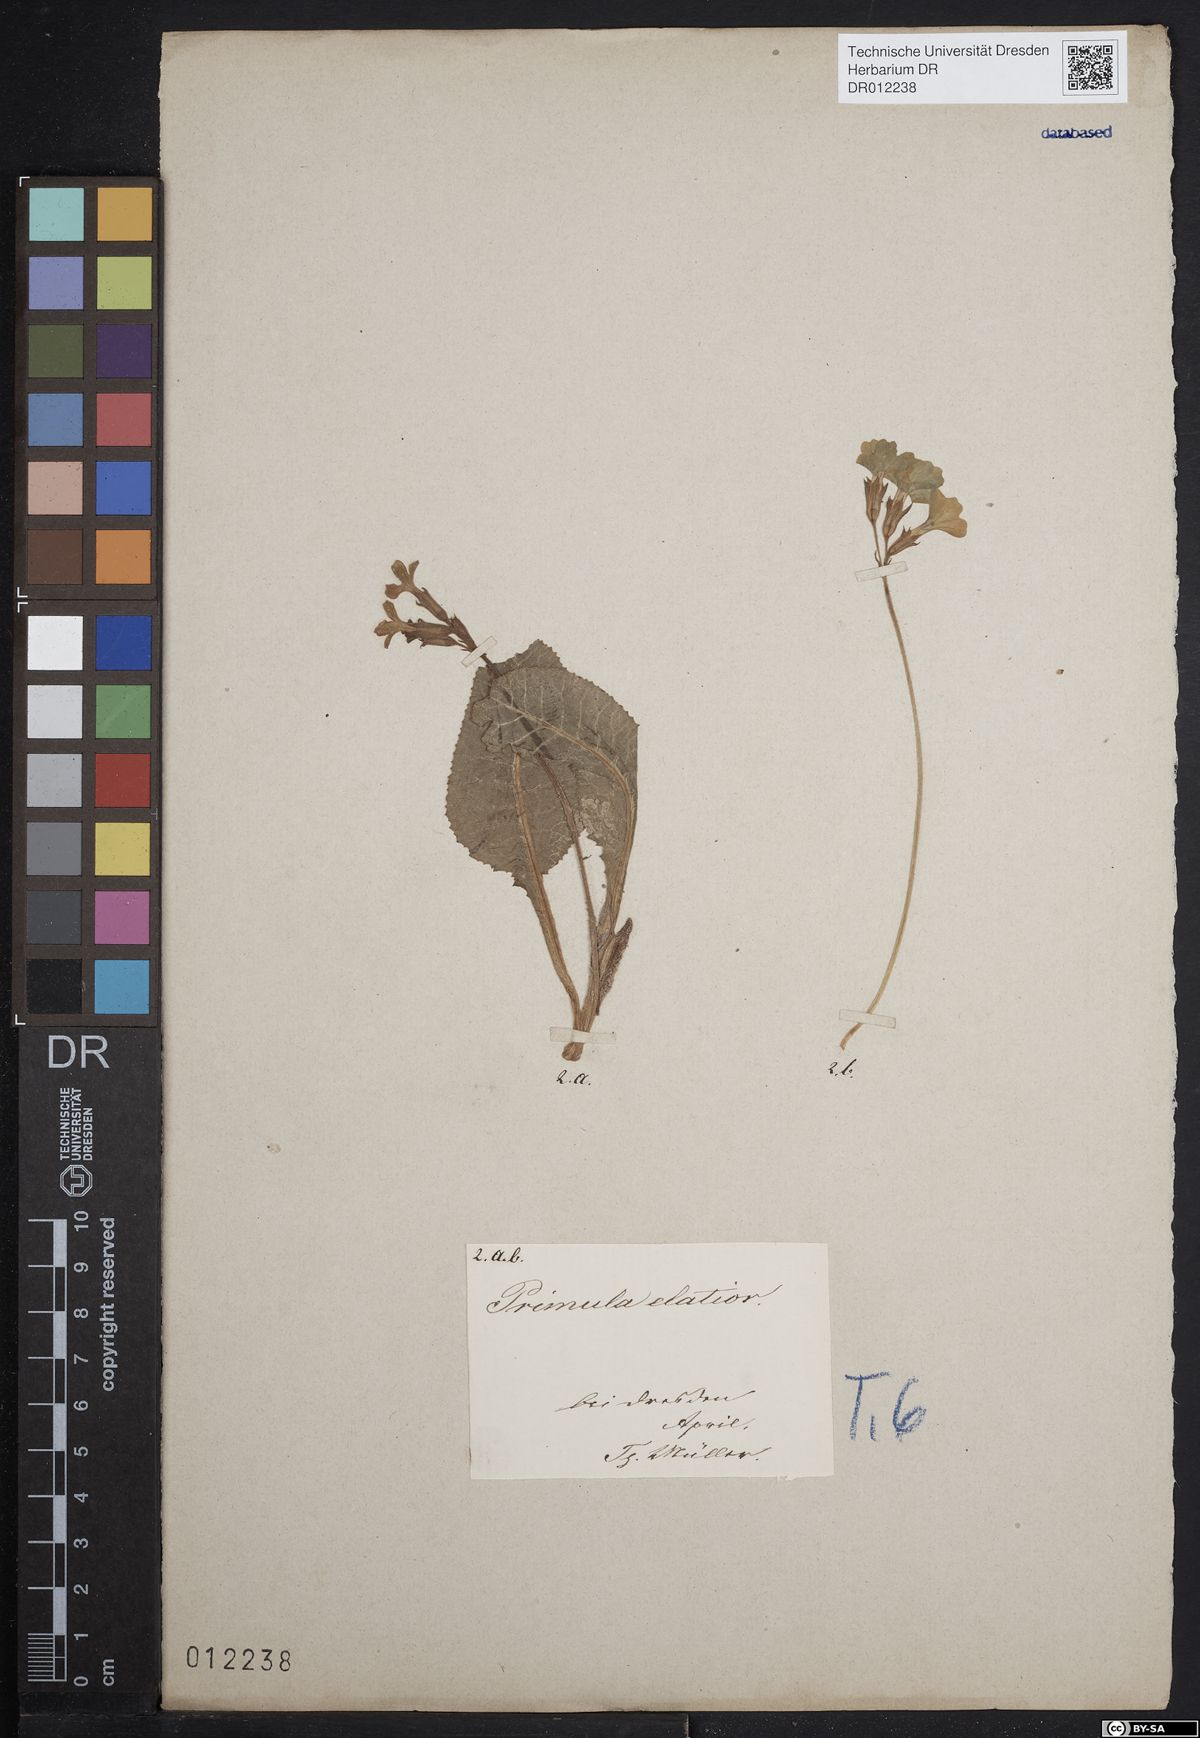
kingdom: Plantae
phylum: Tracheophyta
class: Magnoliopsida
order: Ericales
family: Primulaceae
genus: Primula
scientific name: Primula elatior
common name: Oxlip
